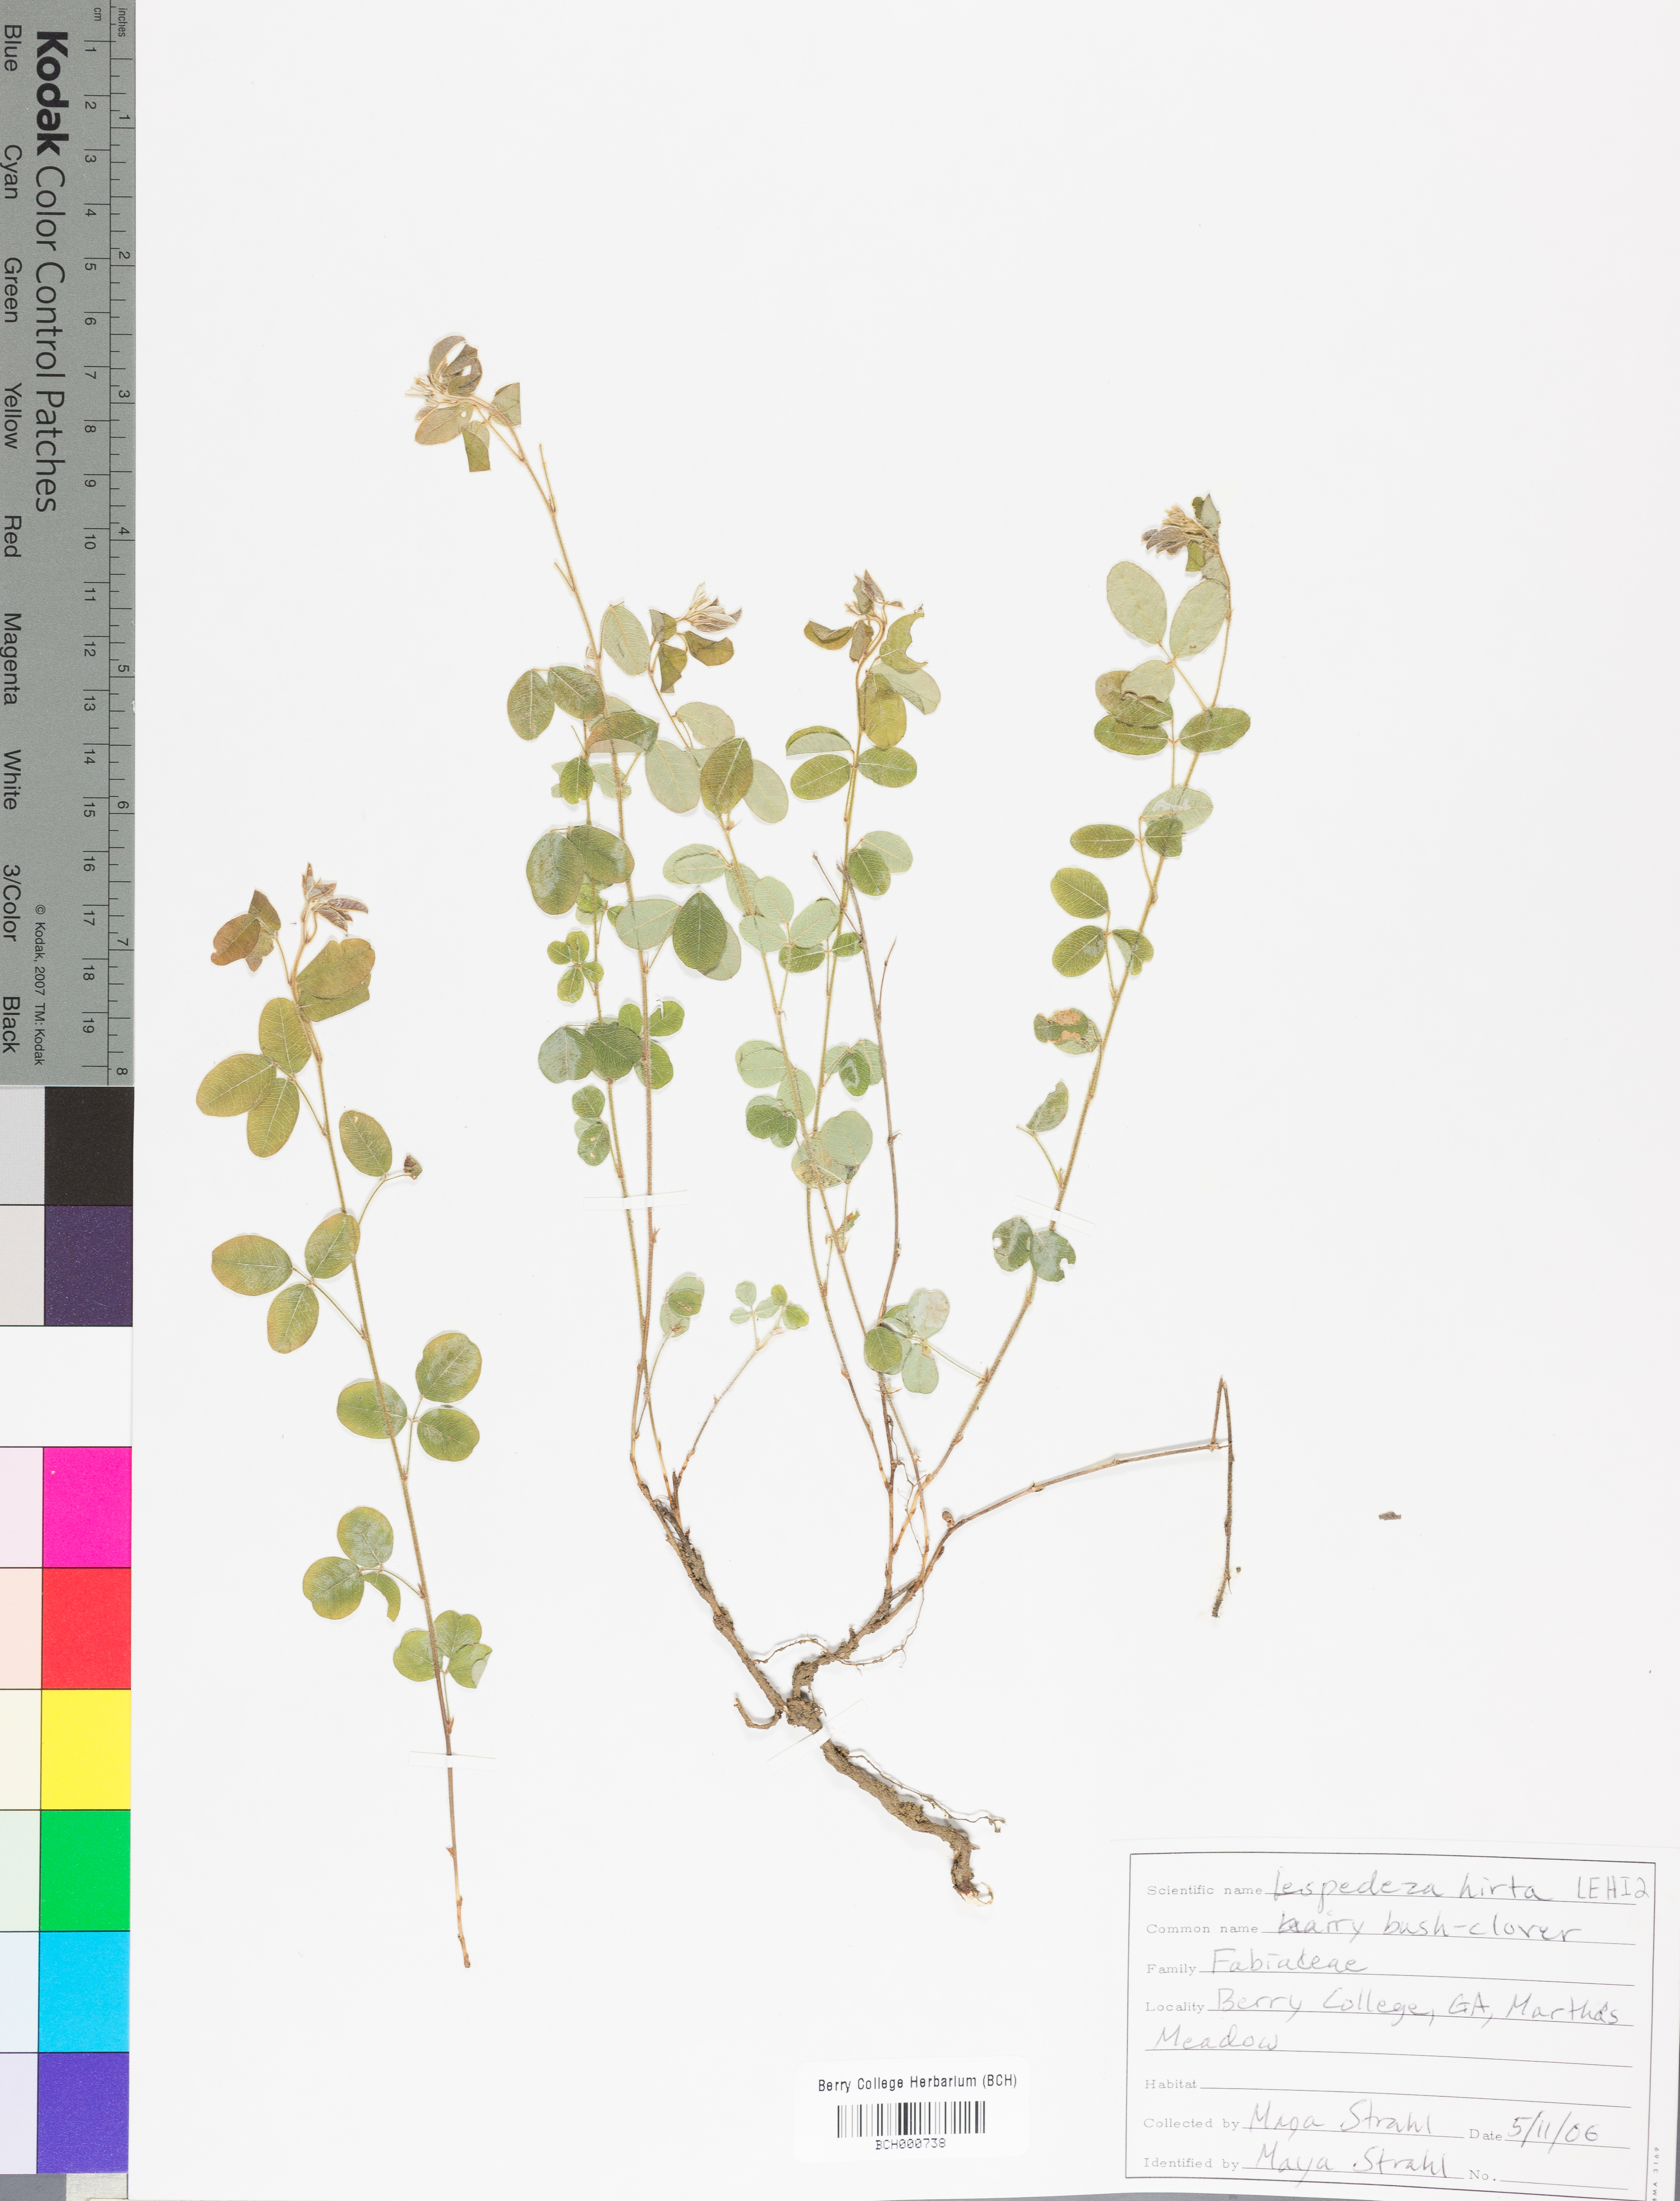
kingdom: Plantae
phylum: Tracheophyta
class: Magnoliopsida
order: Fabales
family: Fabaceae
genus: Lespedeza
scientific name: Lespedeza hirta
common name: Hairy lespedeza
